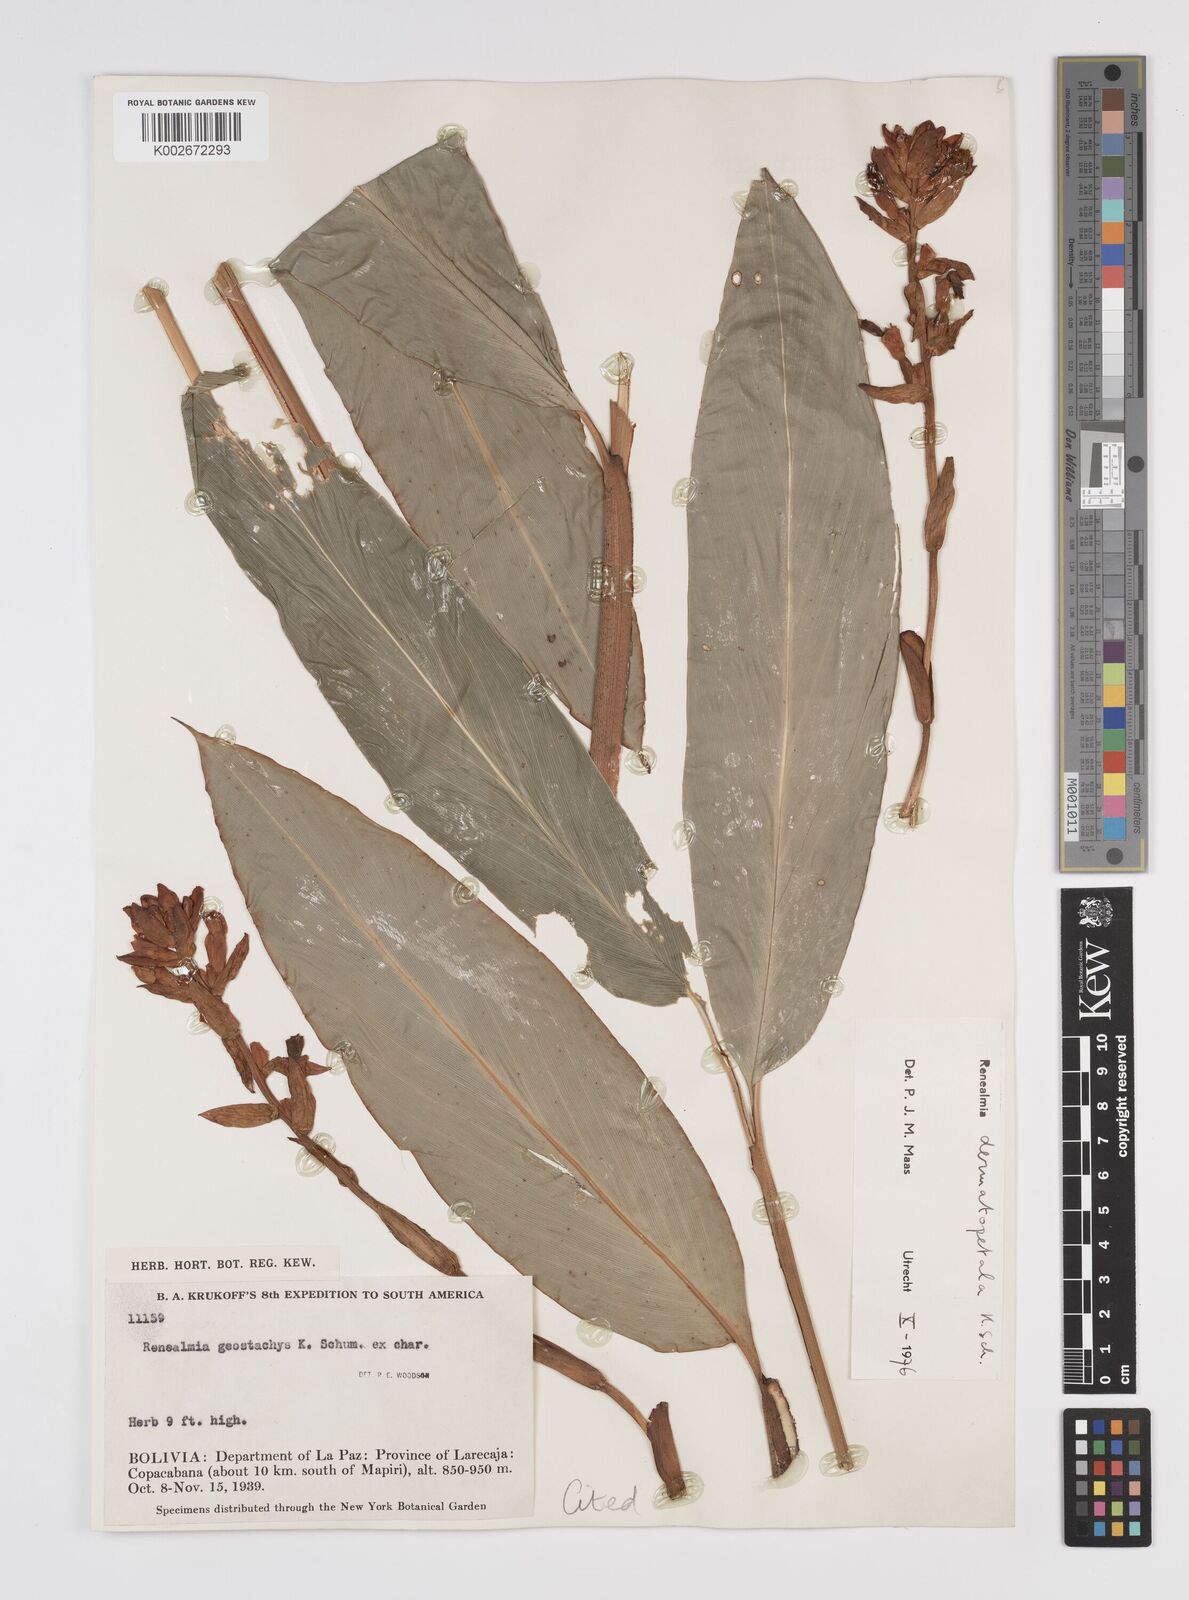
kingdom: Plantae
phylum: Tracheophyta
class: Liliopsida
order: Zingiberales
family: Zingiberaceae
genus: Renealmia
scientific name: Renealmia dermatopetala
